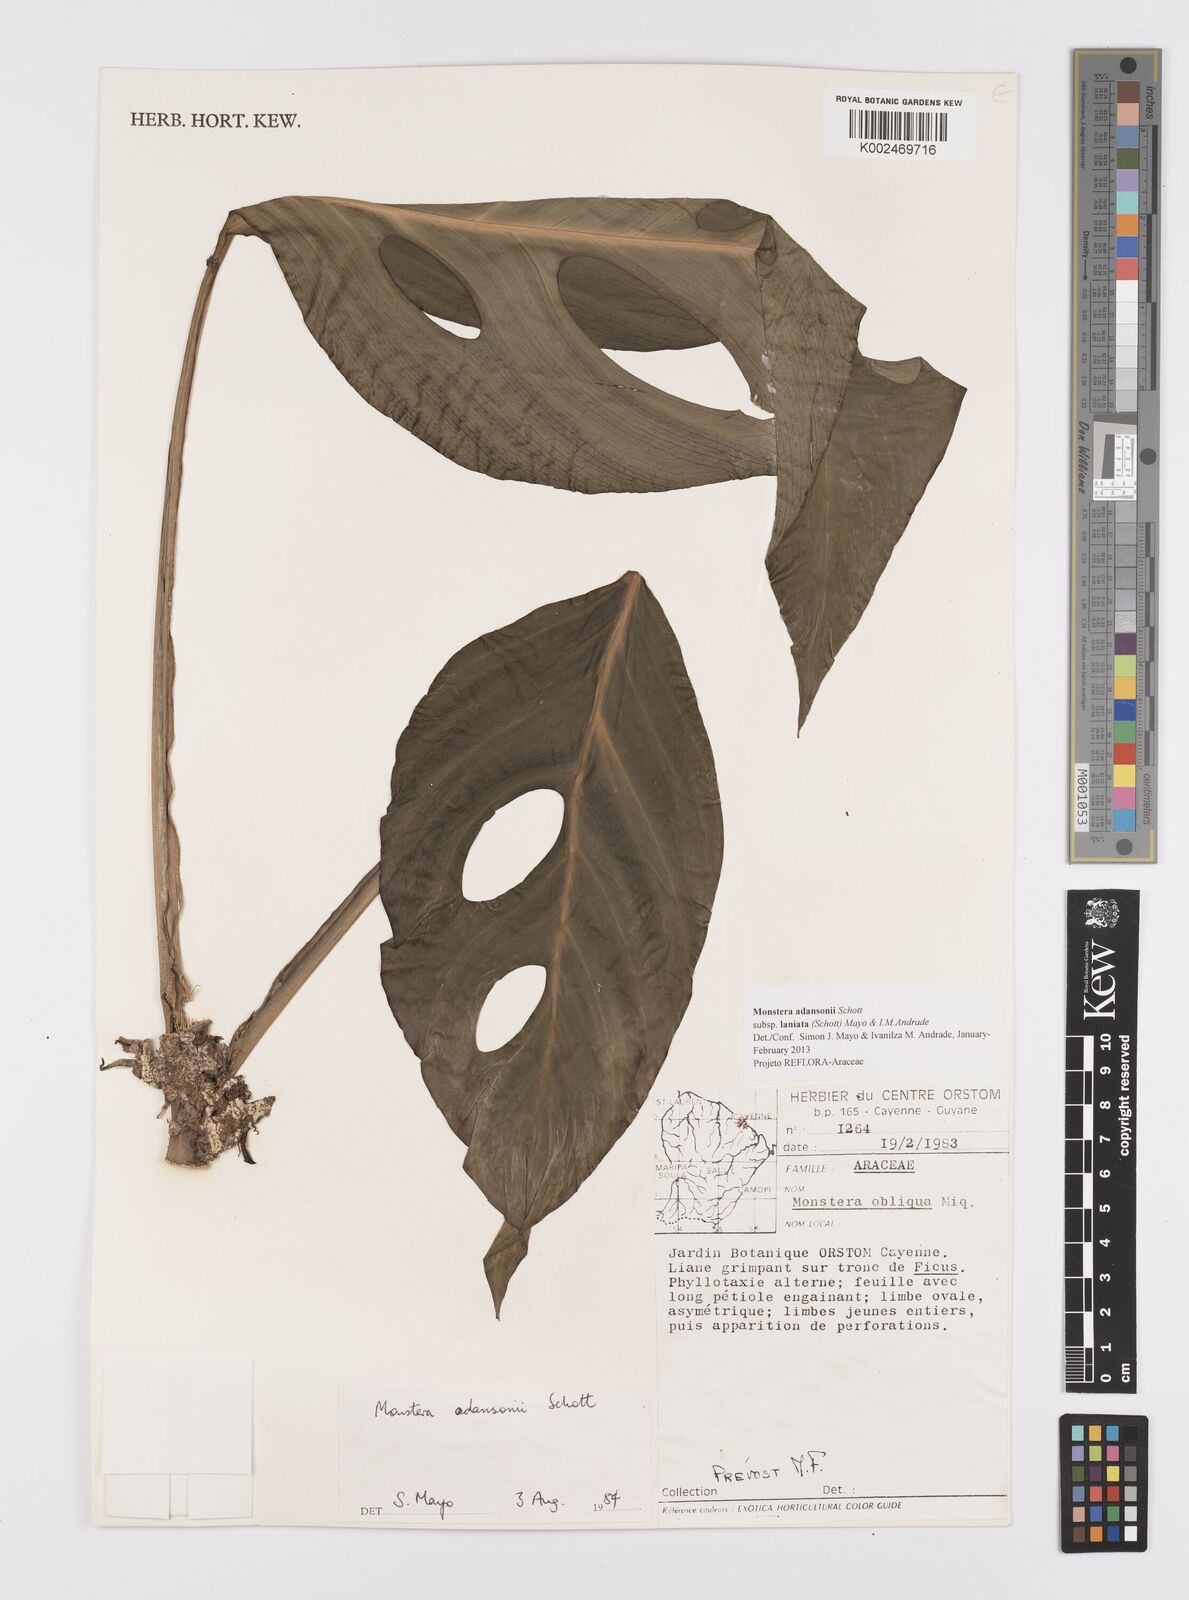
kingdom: Plantae
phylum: Tracheophyta
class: Liliopsida
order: Alismatales
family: Araceae
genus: Monstera
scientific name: Monstera adansonii
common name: Tarovine
